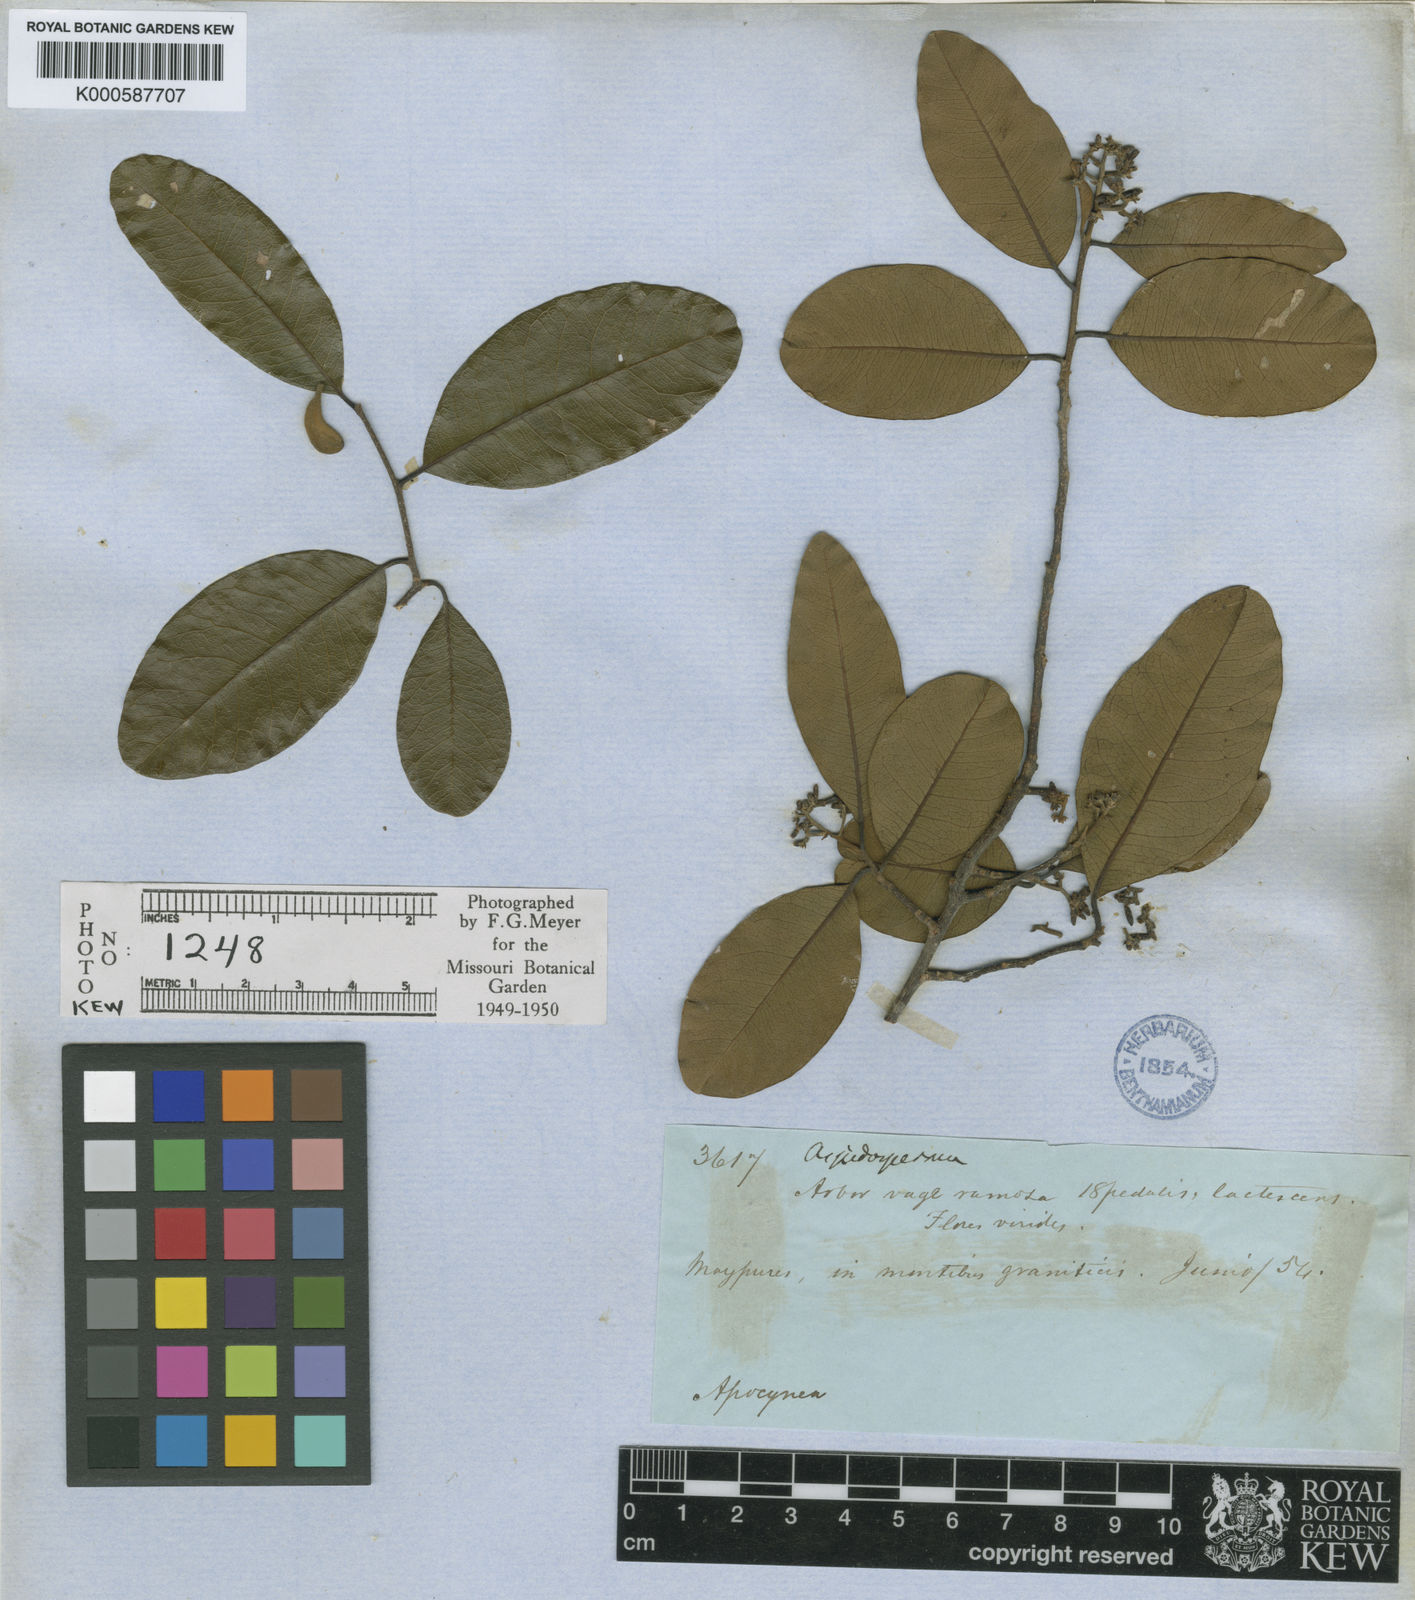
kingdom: Plantae
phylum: Tracheophyta
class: Magnoliopsida
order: Gentianales
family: Apocynaceae
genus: Aspidosperma
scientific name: Aspidosperma
